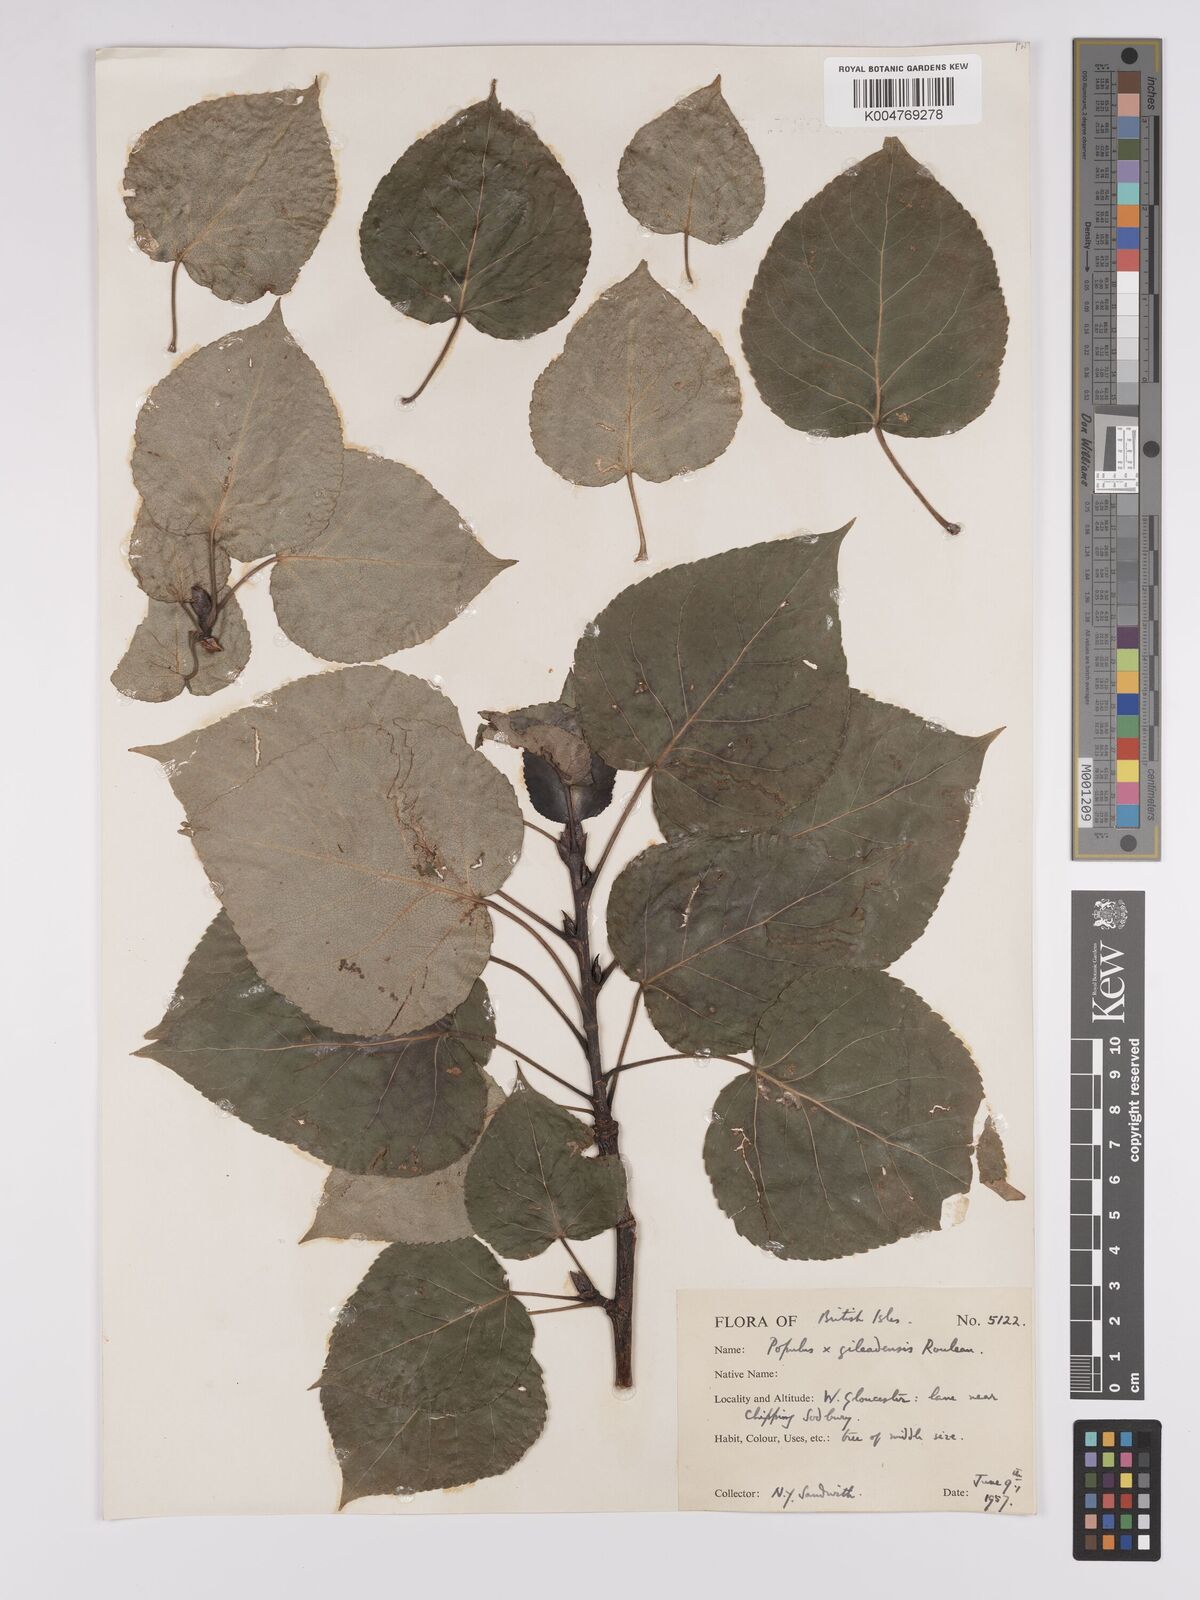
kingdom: Plantae
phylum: Tracheophyta
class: Magnoliopsida
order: Malpighiales
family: Salicaceae
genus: Populus
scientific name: Populus jackii
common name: Balm-of-gilead
